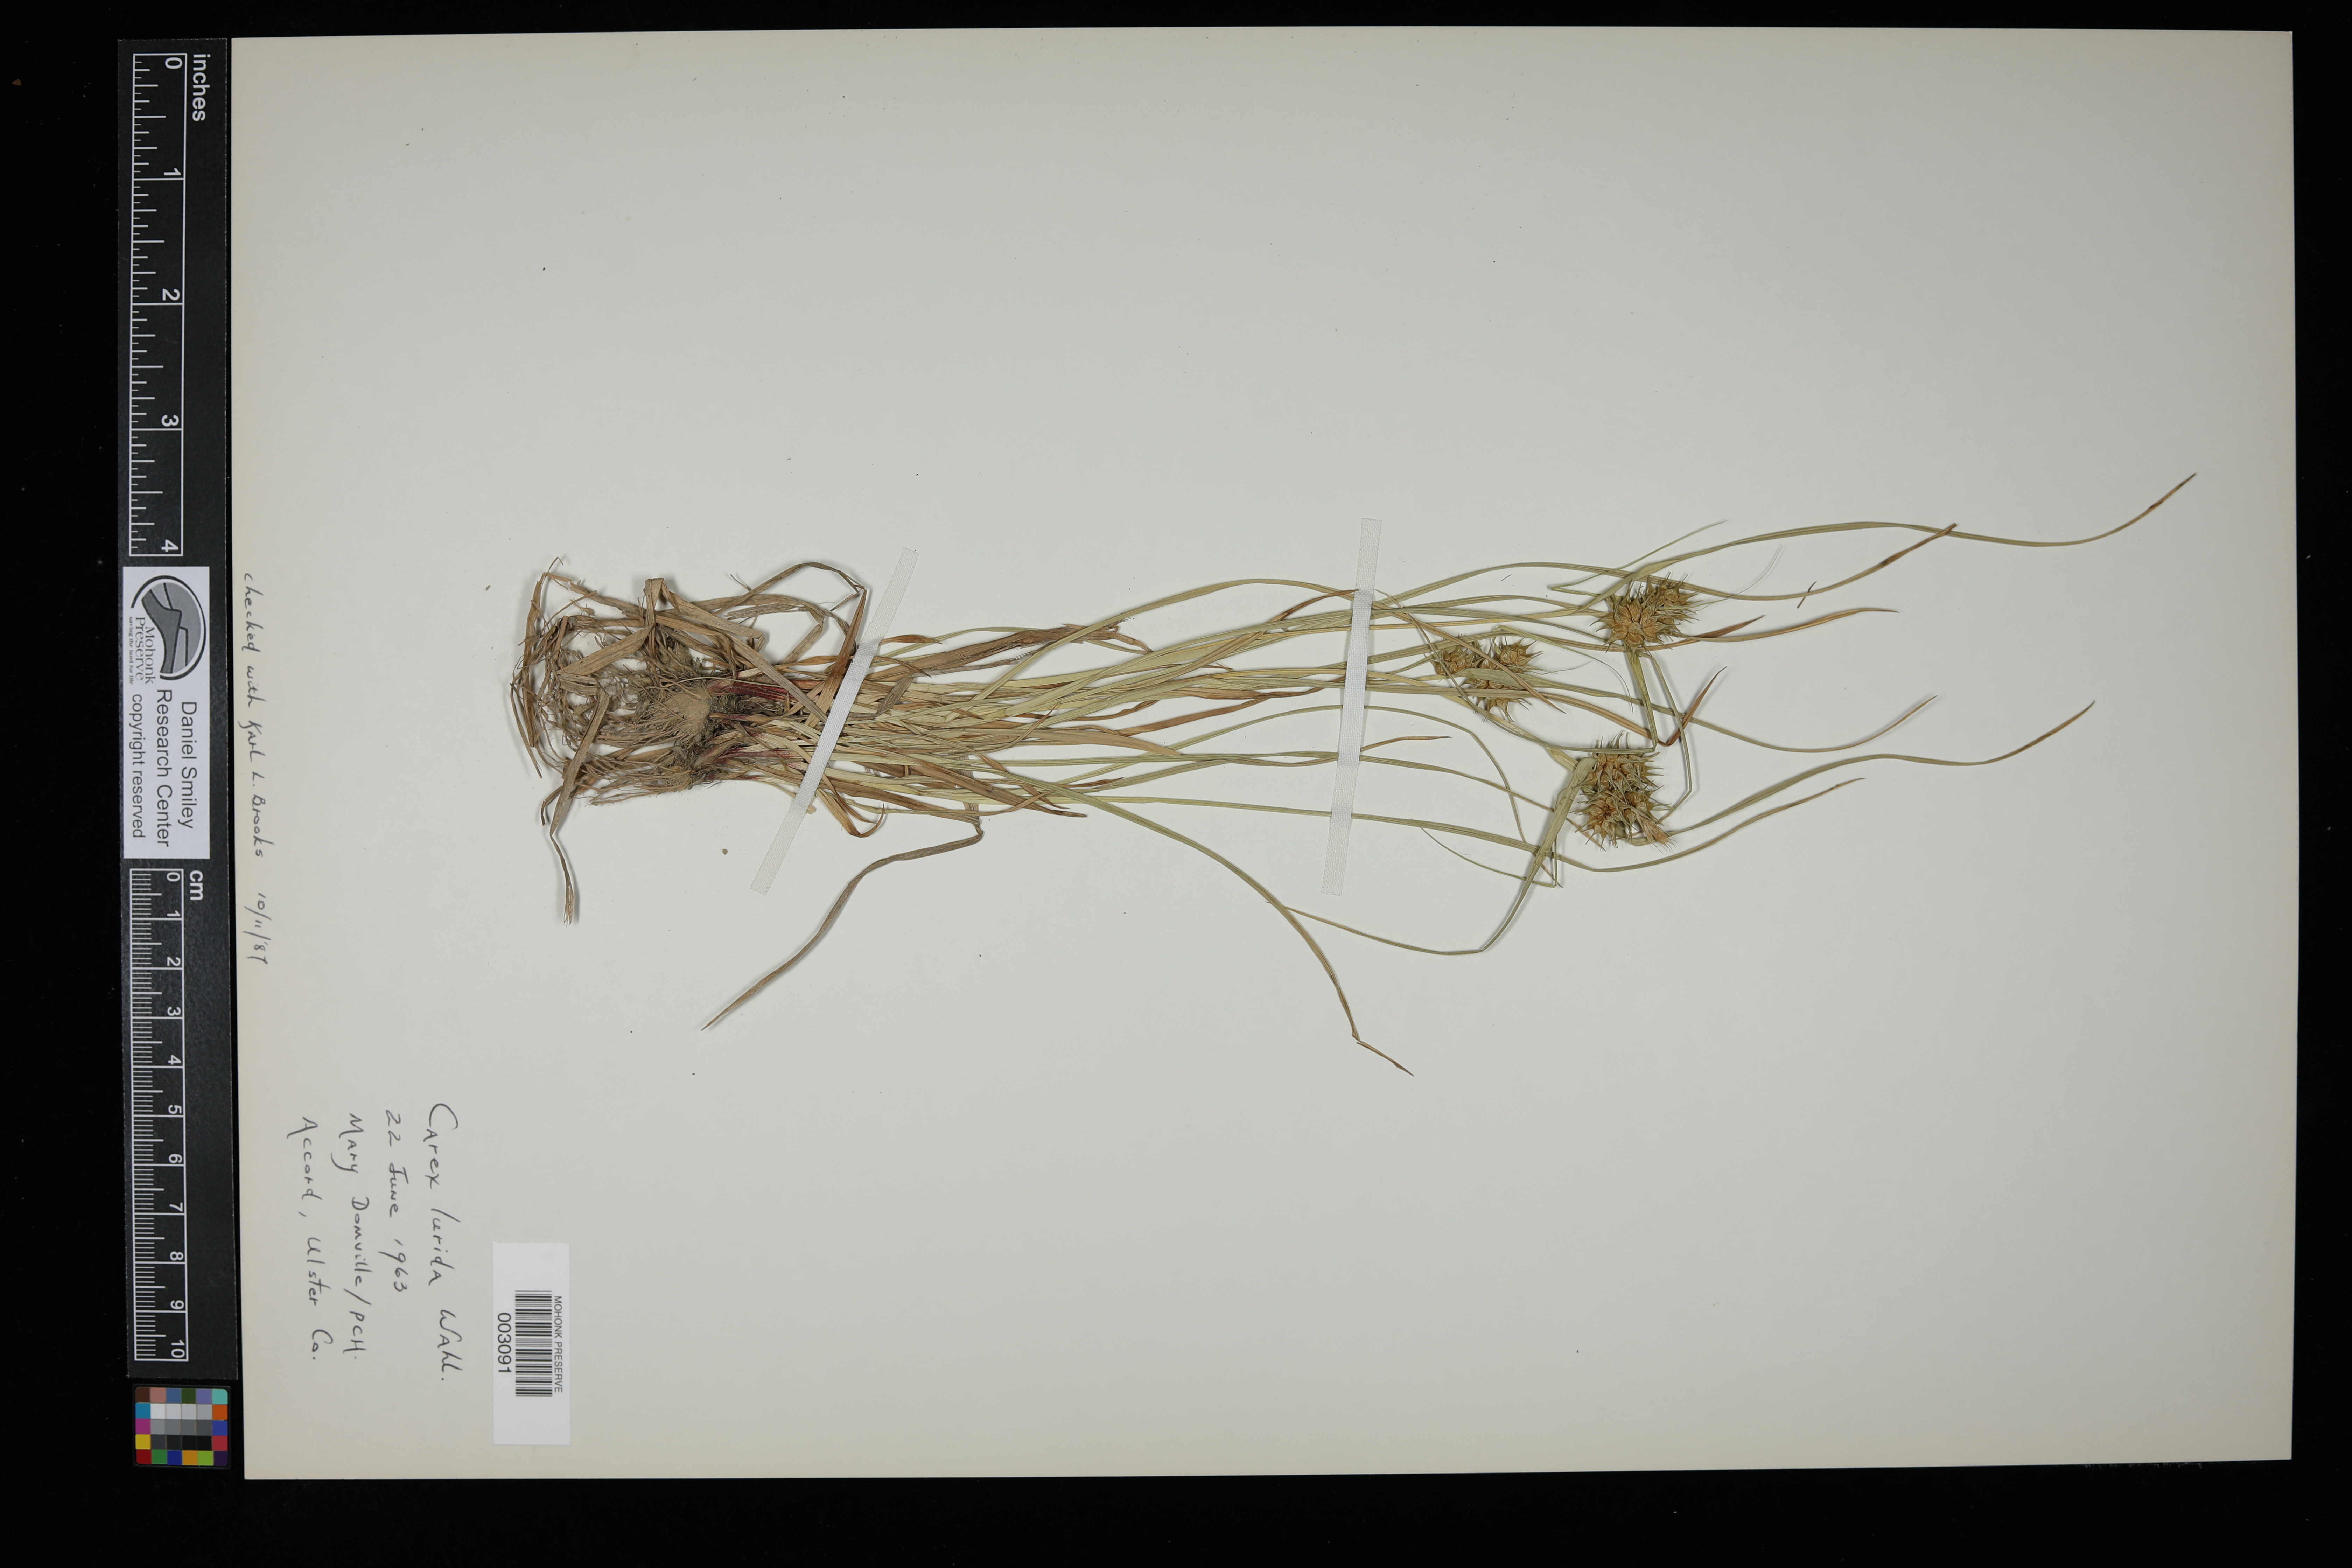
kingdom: Plantae
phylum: Tracheophyta
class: Liliopsida
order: Poales
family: Cyperaceae
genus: Carex
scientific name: Carex lurida
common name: Sallow sedge
